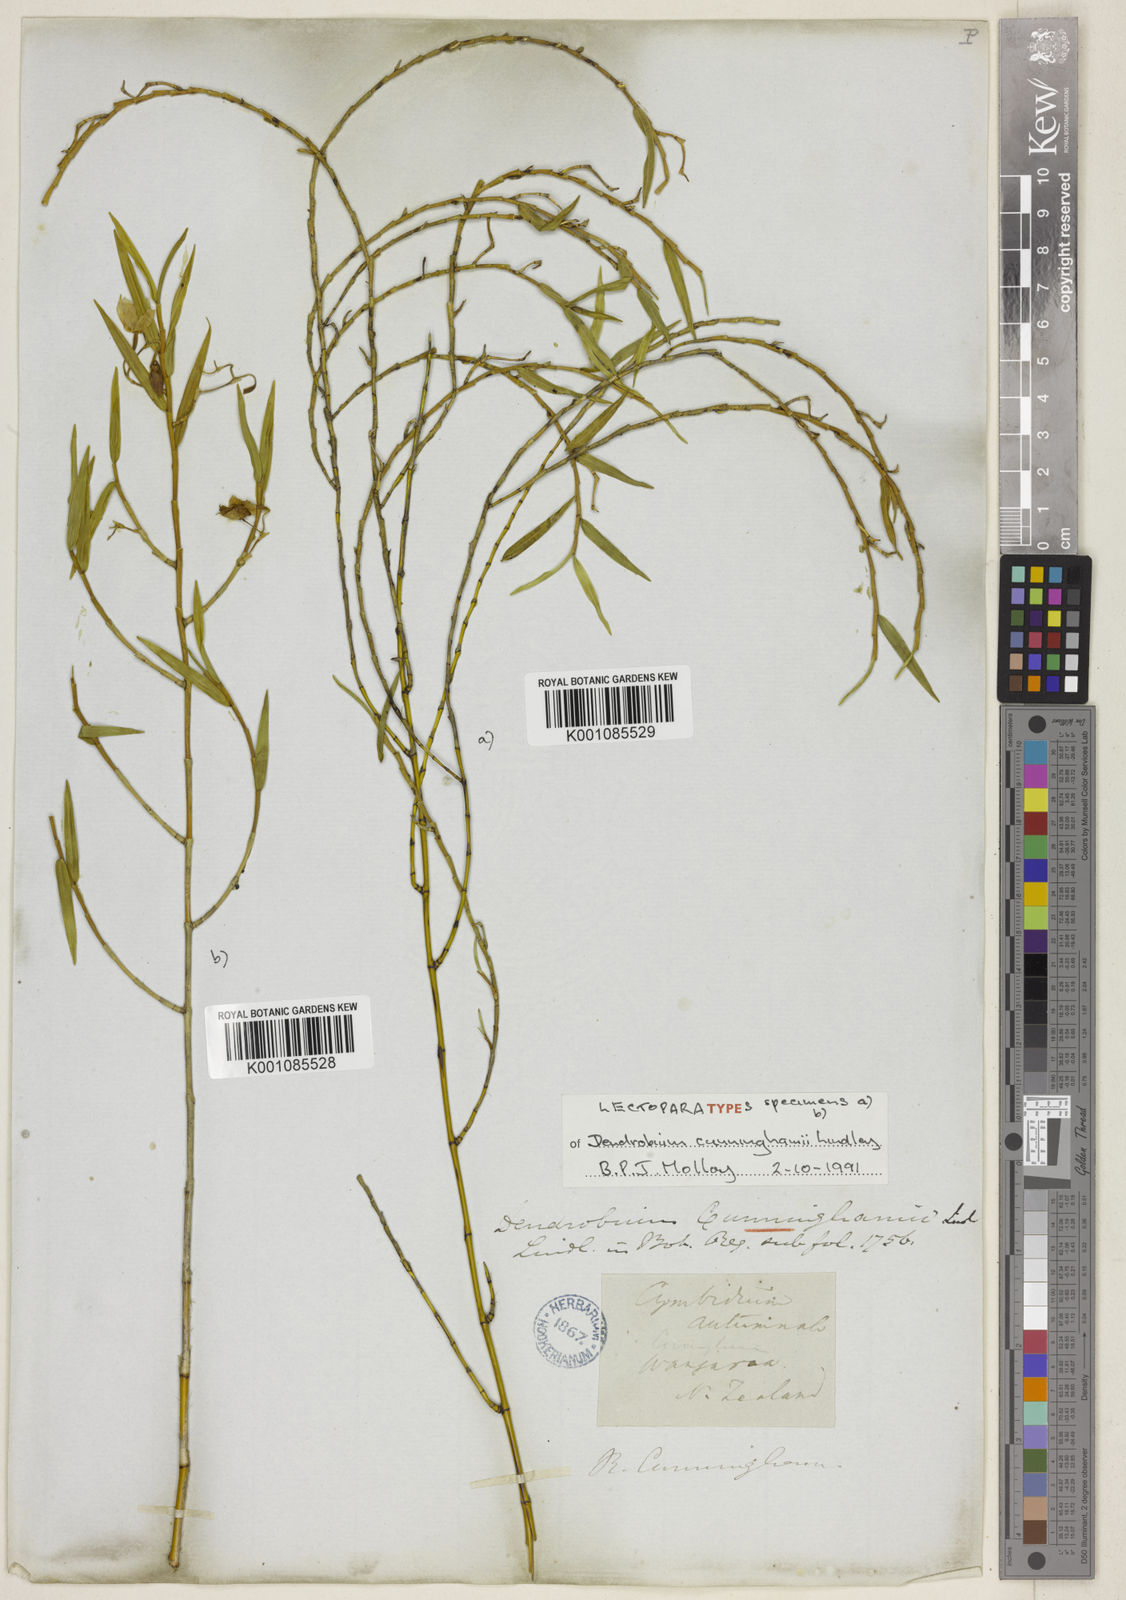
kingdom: Plantae
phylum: Tracheophyta
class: Liliopsida
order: Asparagales
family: Orchidaceae
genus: Dendrobium
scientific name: Dendrobium cunninghamii
